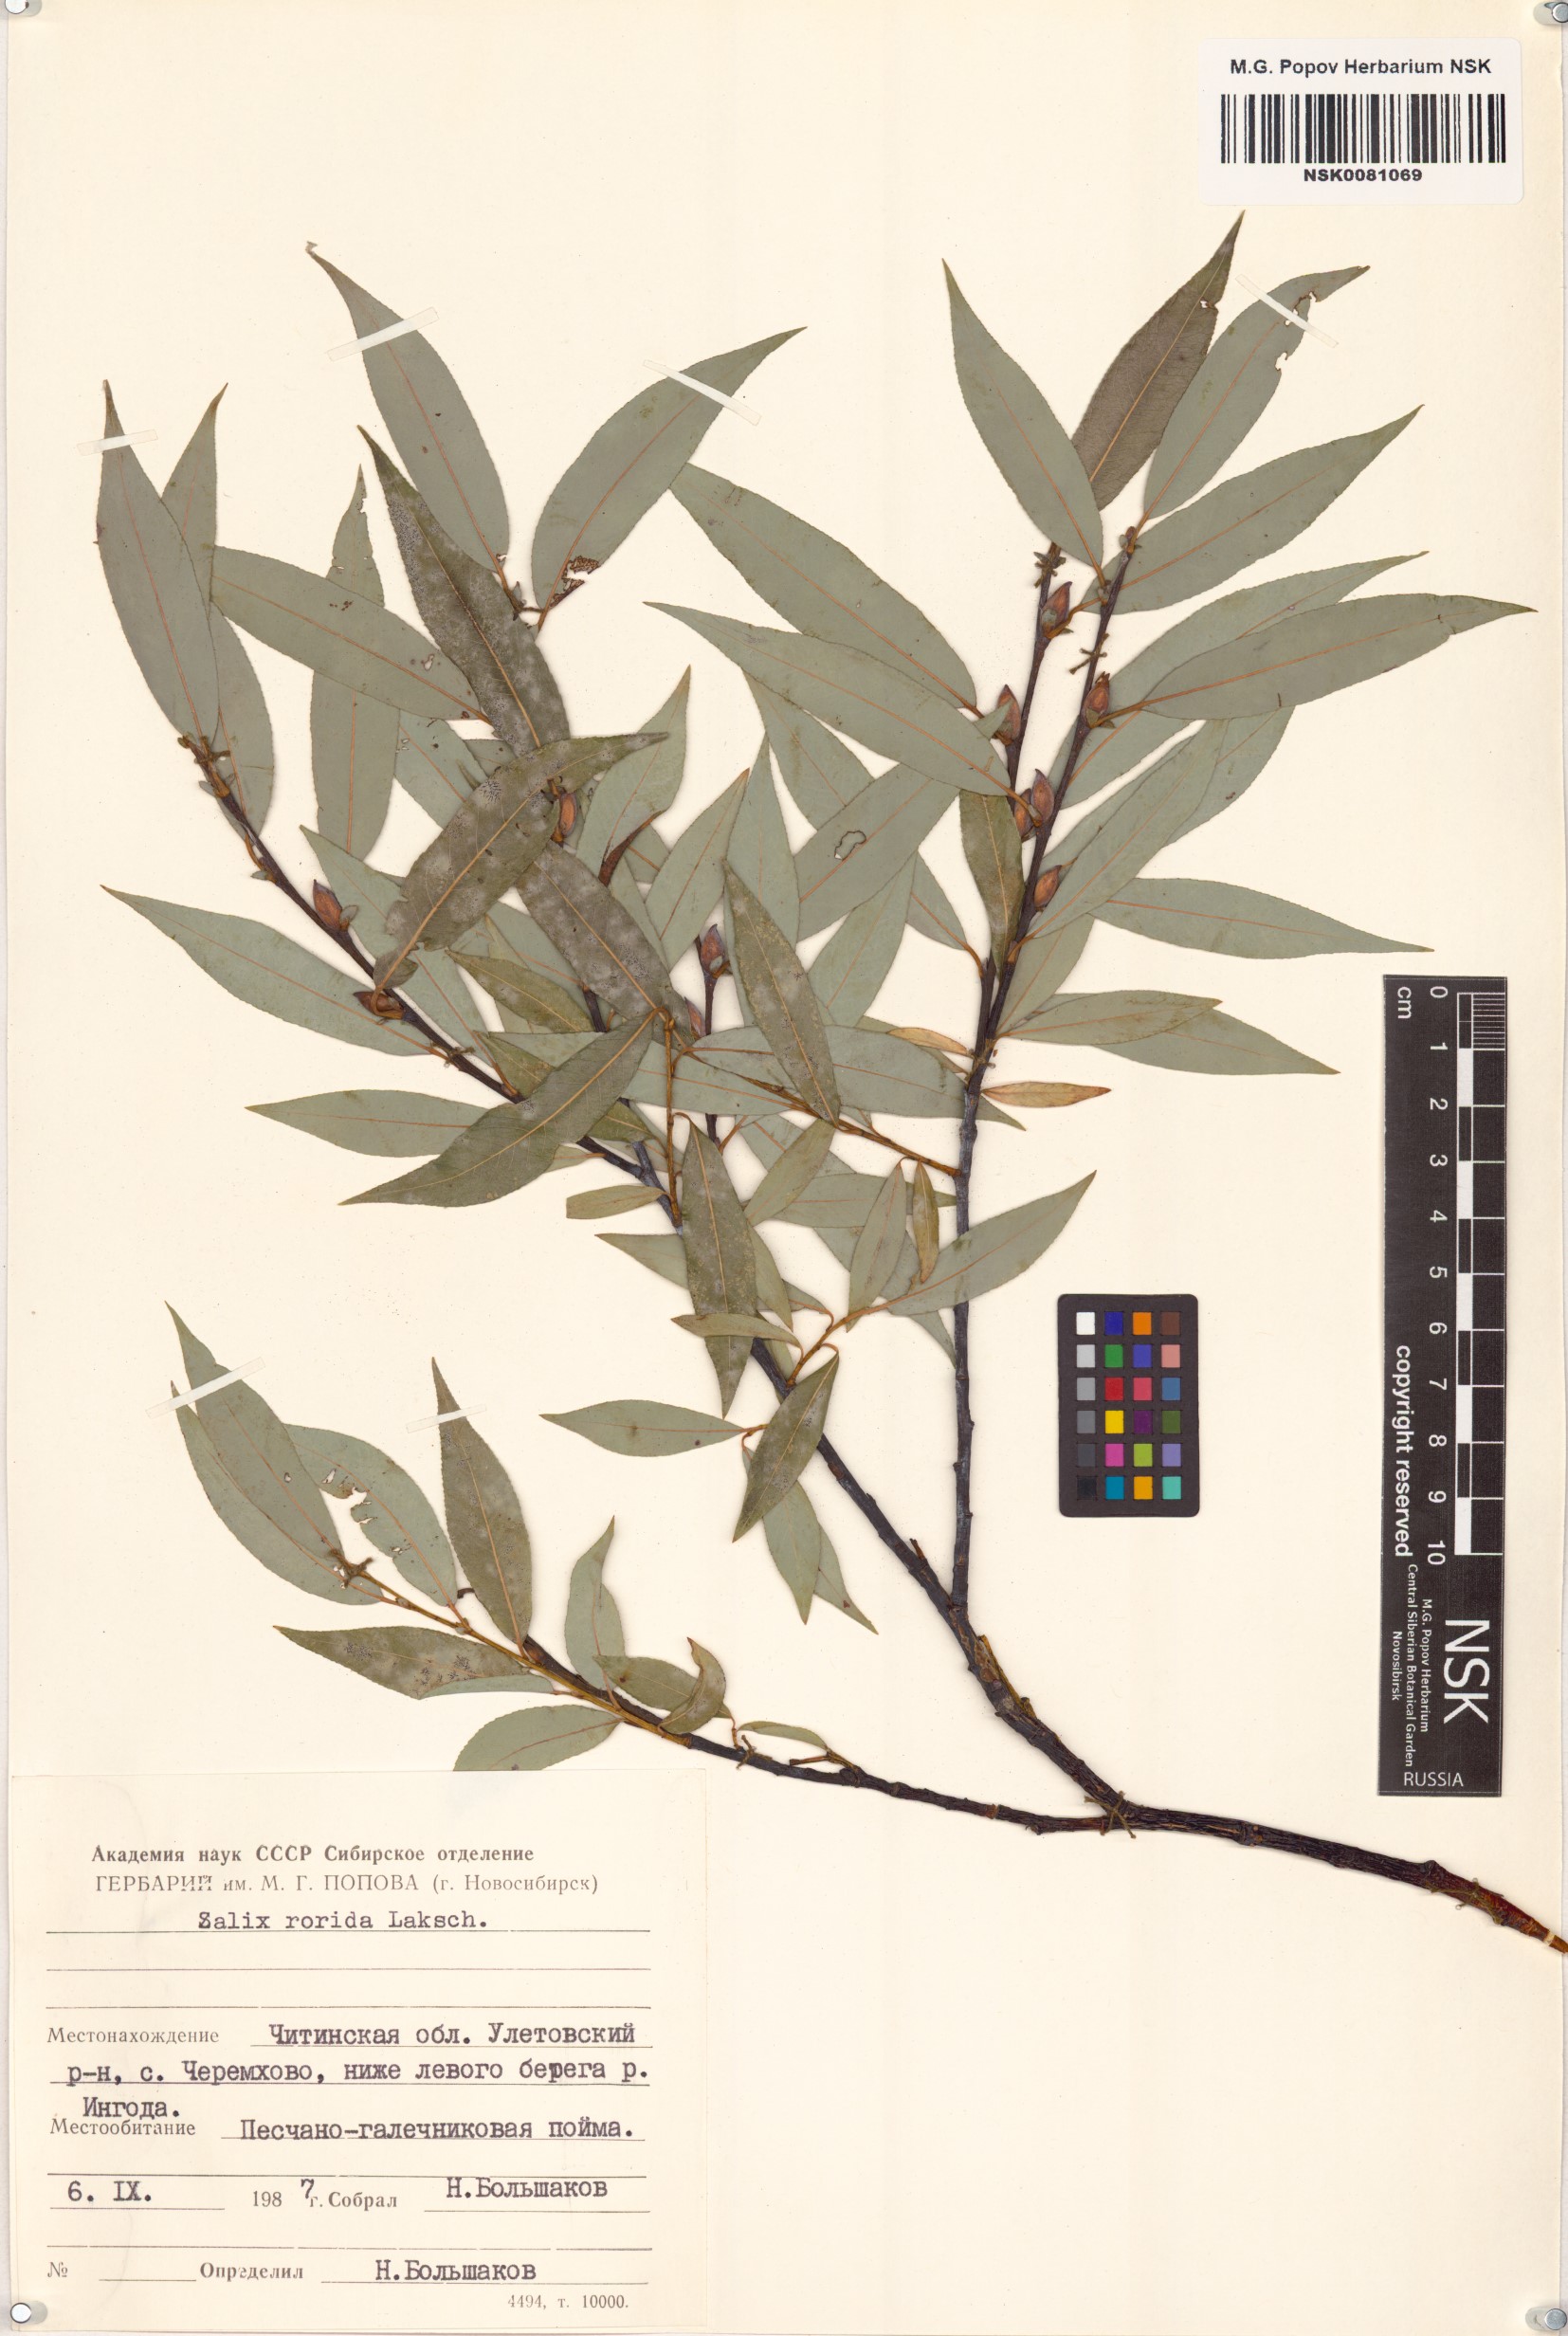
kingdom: Plantae
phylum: Tracheophyta
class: Magnoliopsida
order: Malpighiales
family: Salicaceae
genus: Salix
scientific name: Salix rorida
